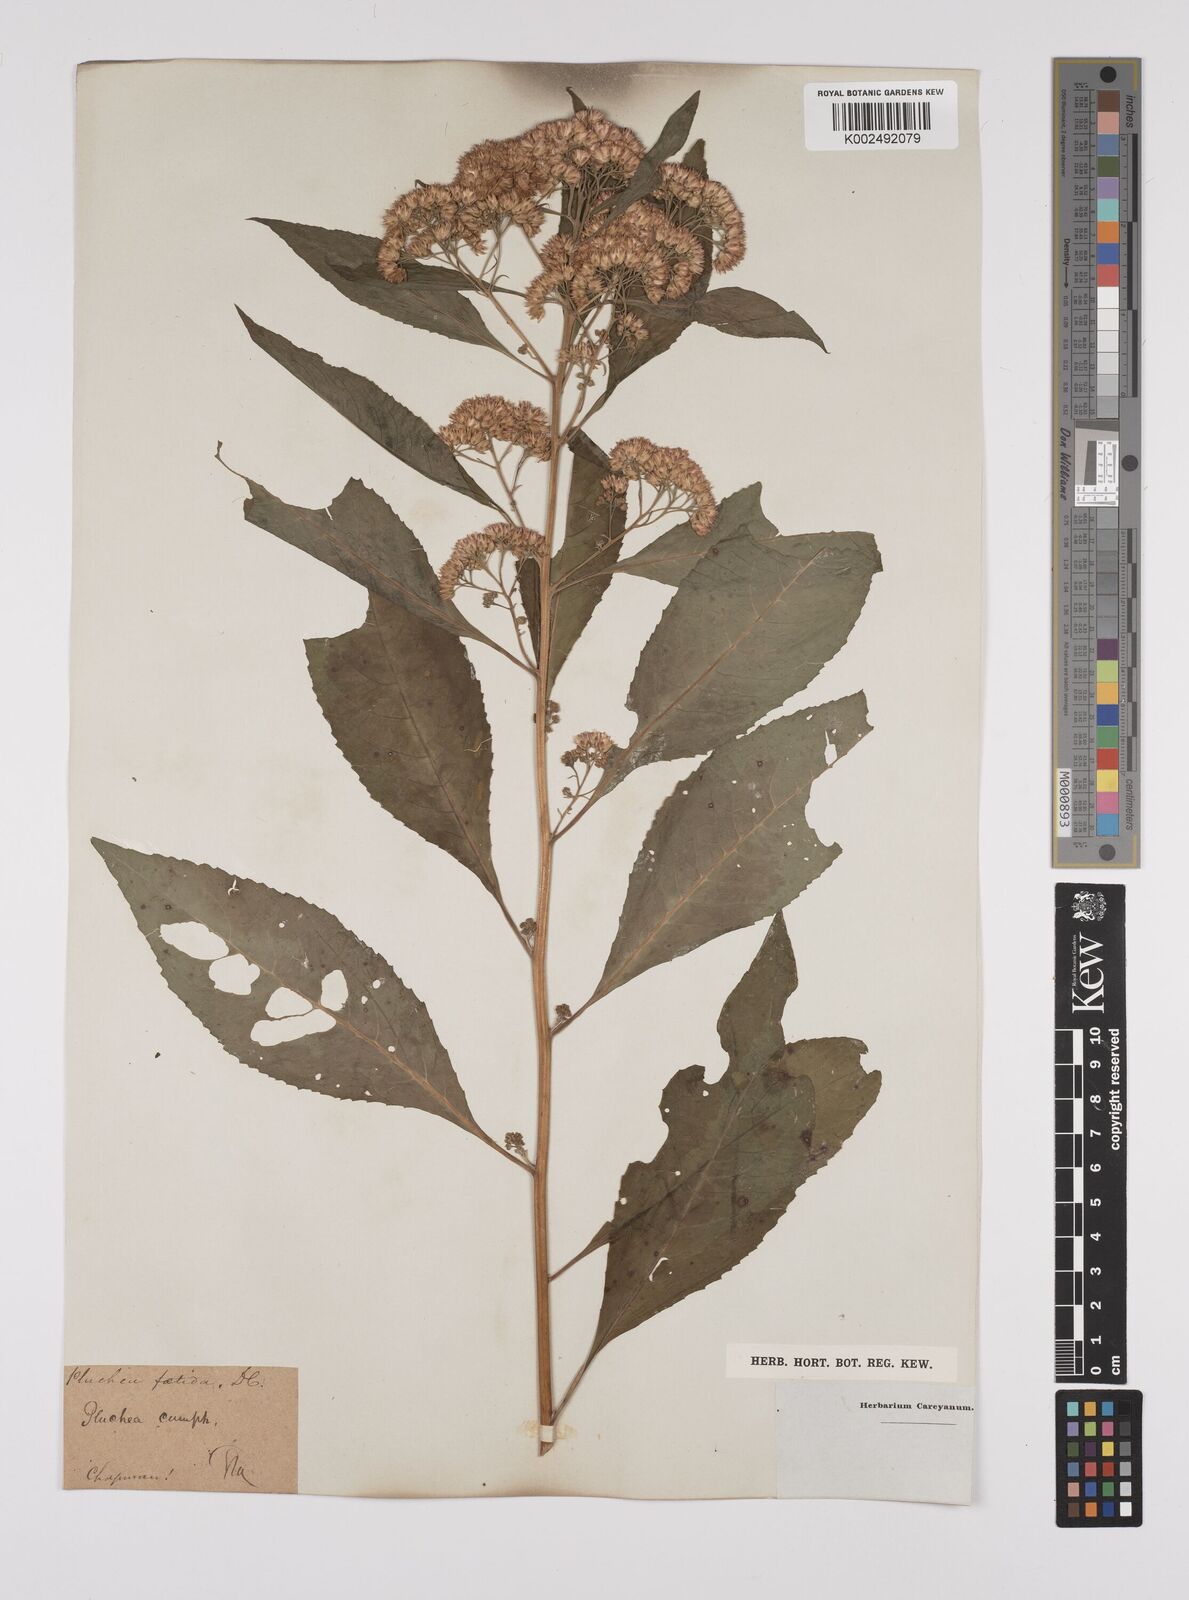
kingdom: Plantae
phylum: Tracheophyta
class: Magnoliopsida
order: Asterales
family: Asteraceae
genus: Pluchea
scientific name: Pluchea camphorata
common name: Camphor pluchea
